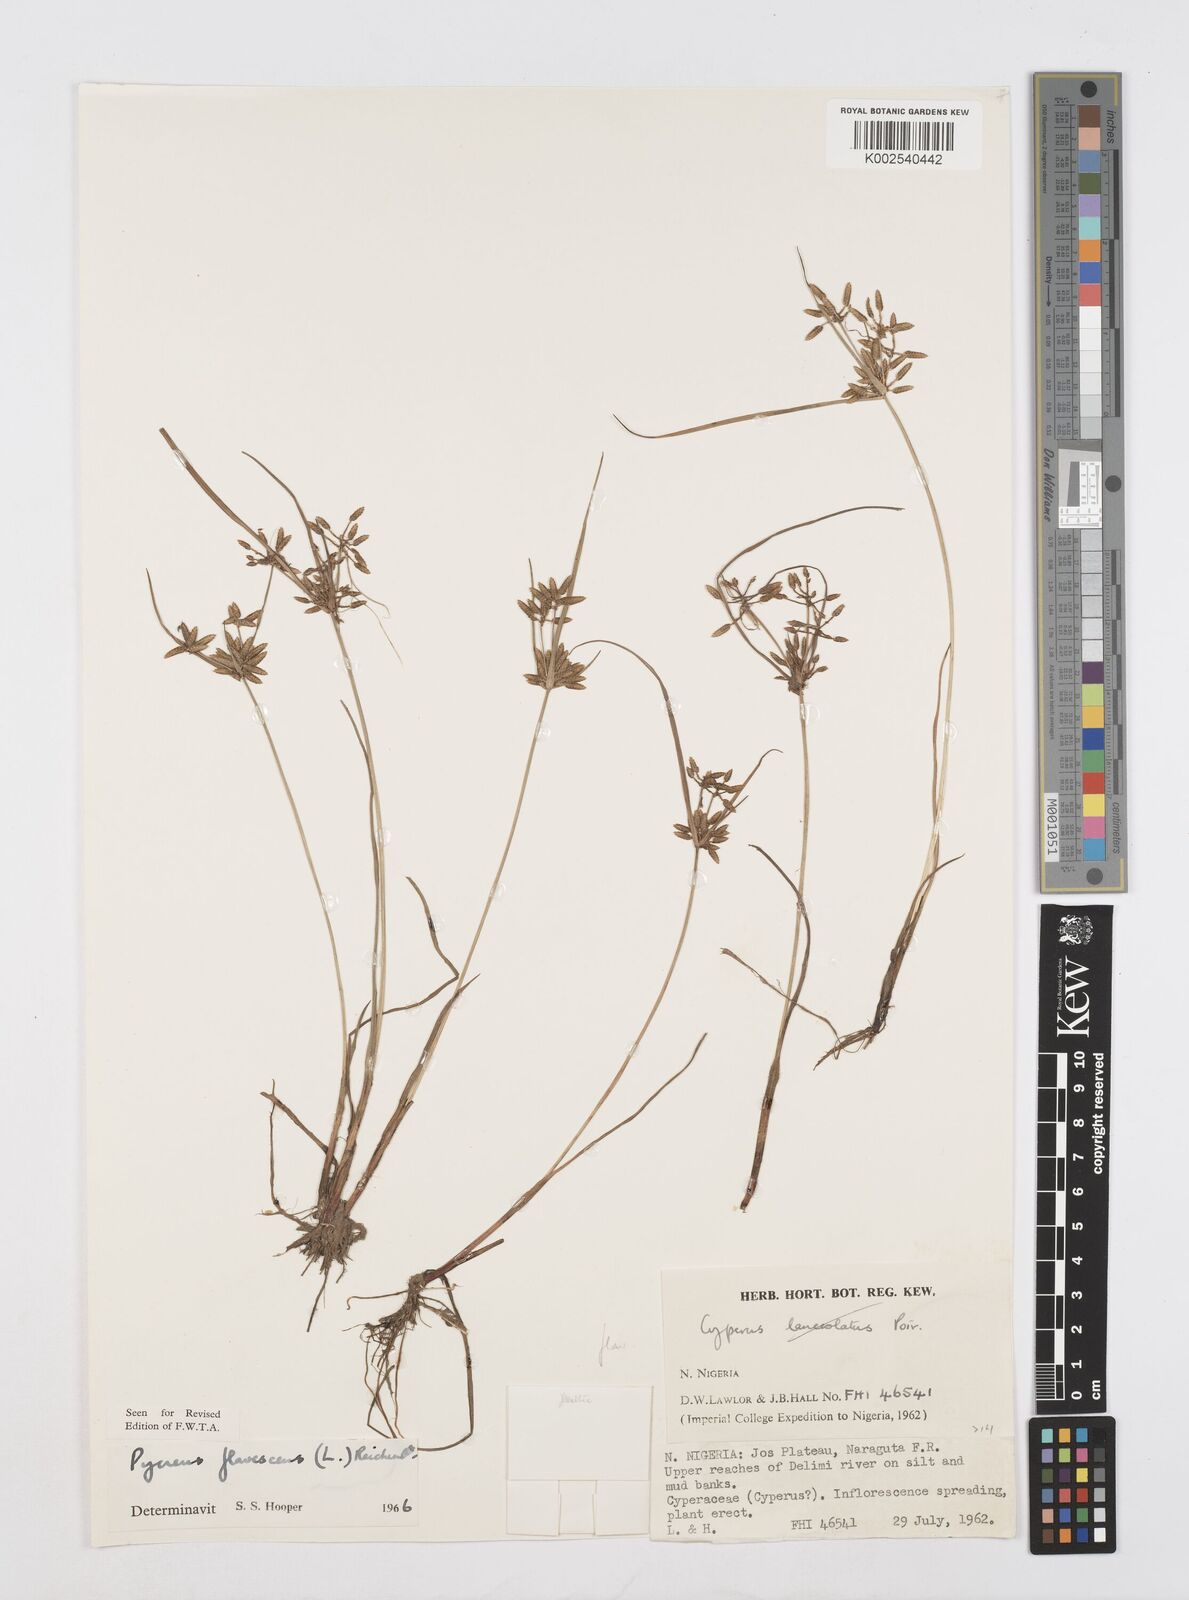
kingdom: Plantae
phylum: Tracheophyta
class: Liliopsida
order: Poales
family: Cyperaceae
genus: Cyperus
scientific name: Cyperus flavescens
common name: Yellow galingale
